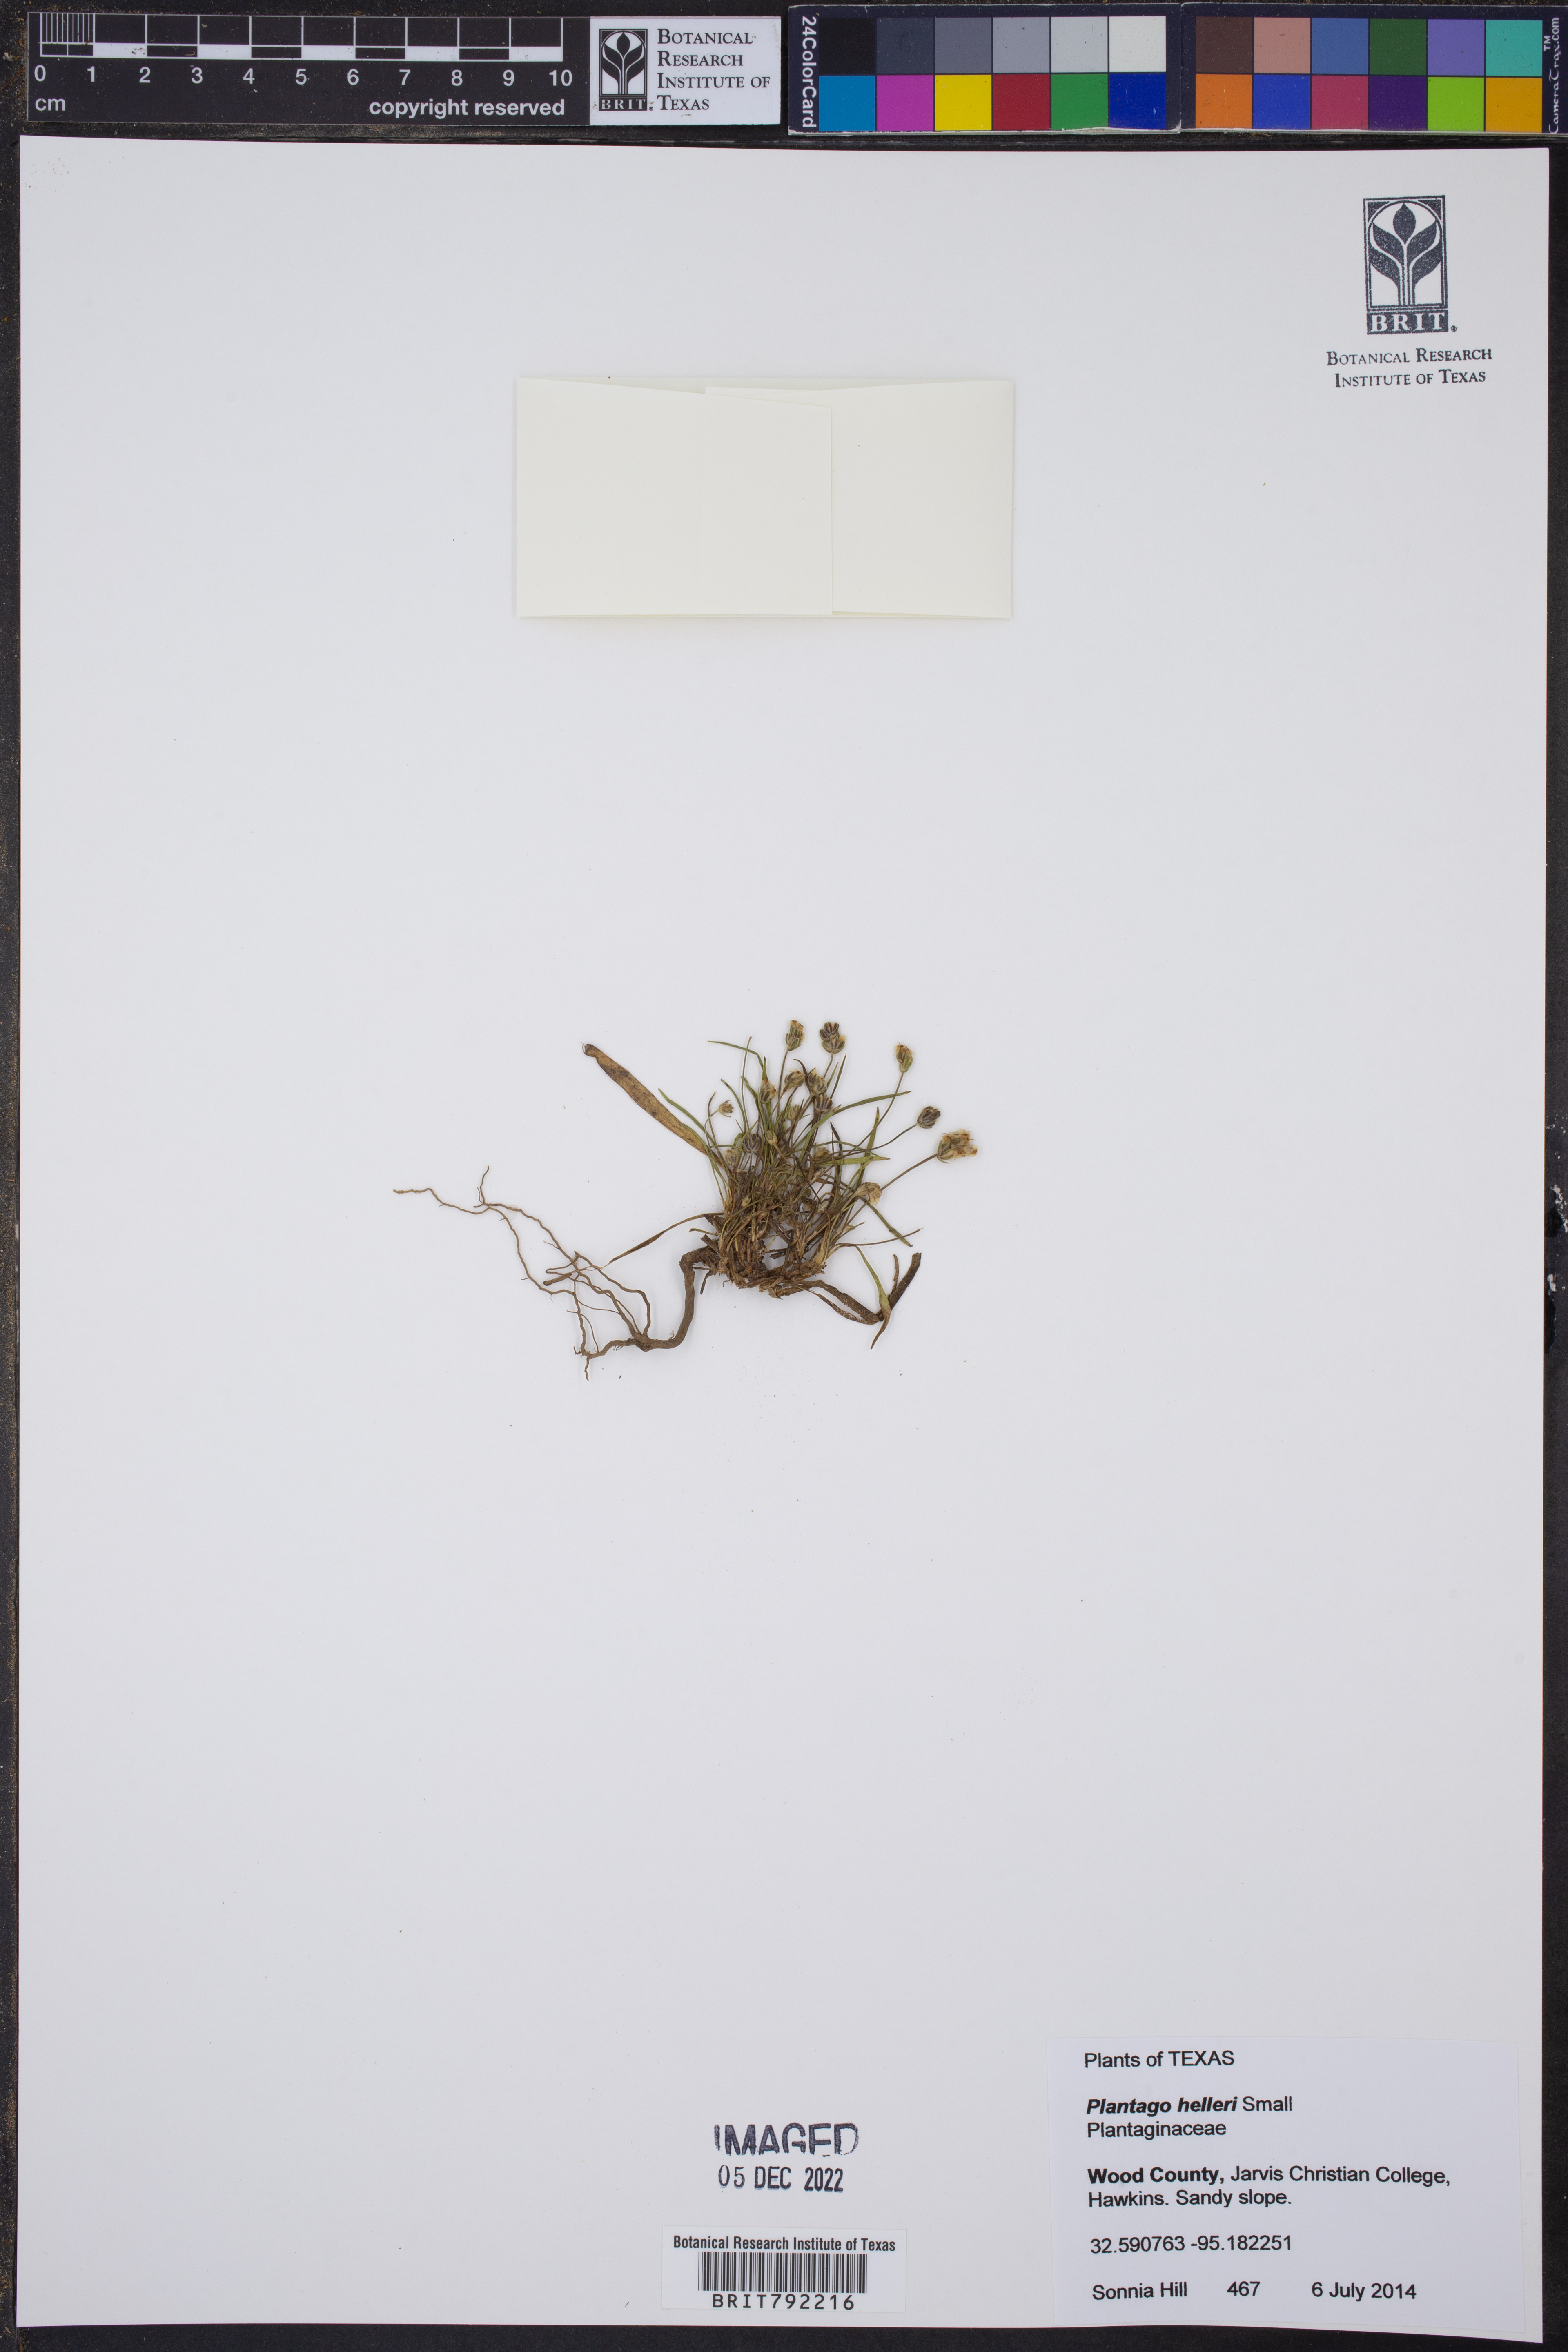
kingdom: Plantae
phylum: Tracheophyta
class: Magnoliopsida
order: Lamiales
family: Plantaginaceae
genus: Plantago
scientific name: Plantago helleri
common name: Heller's plantain
